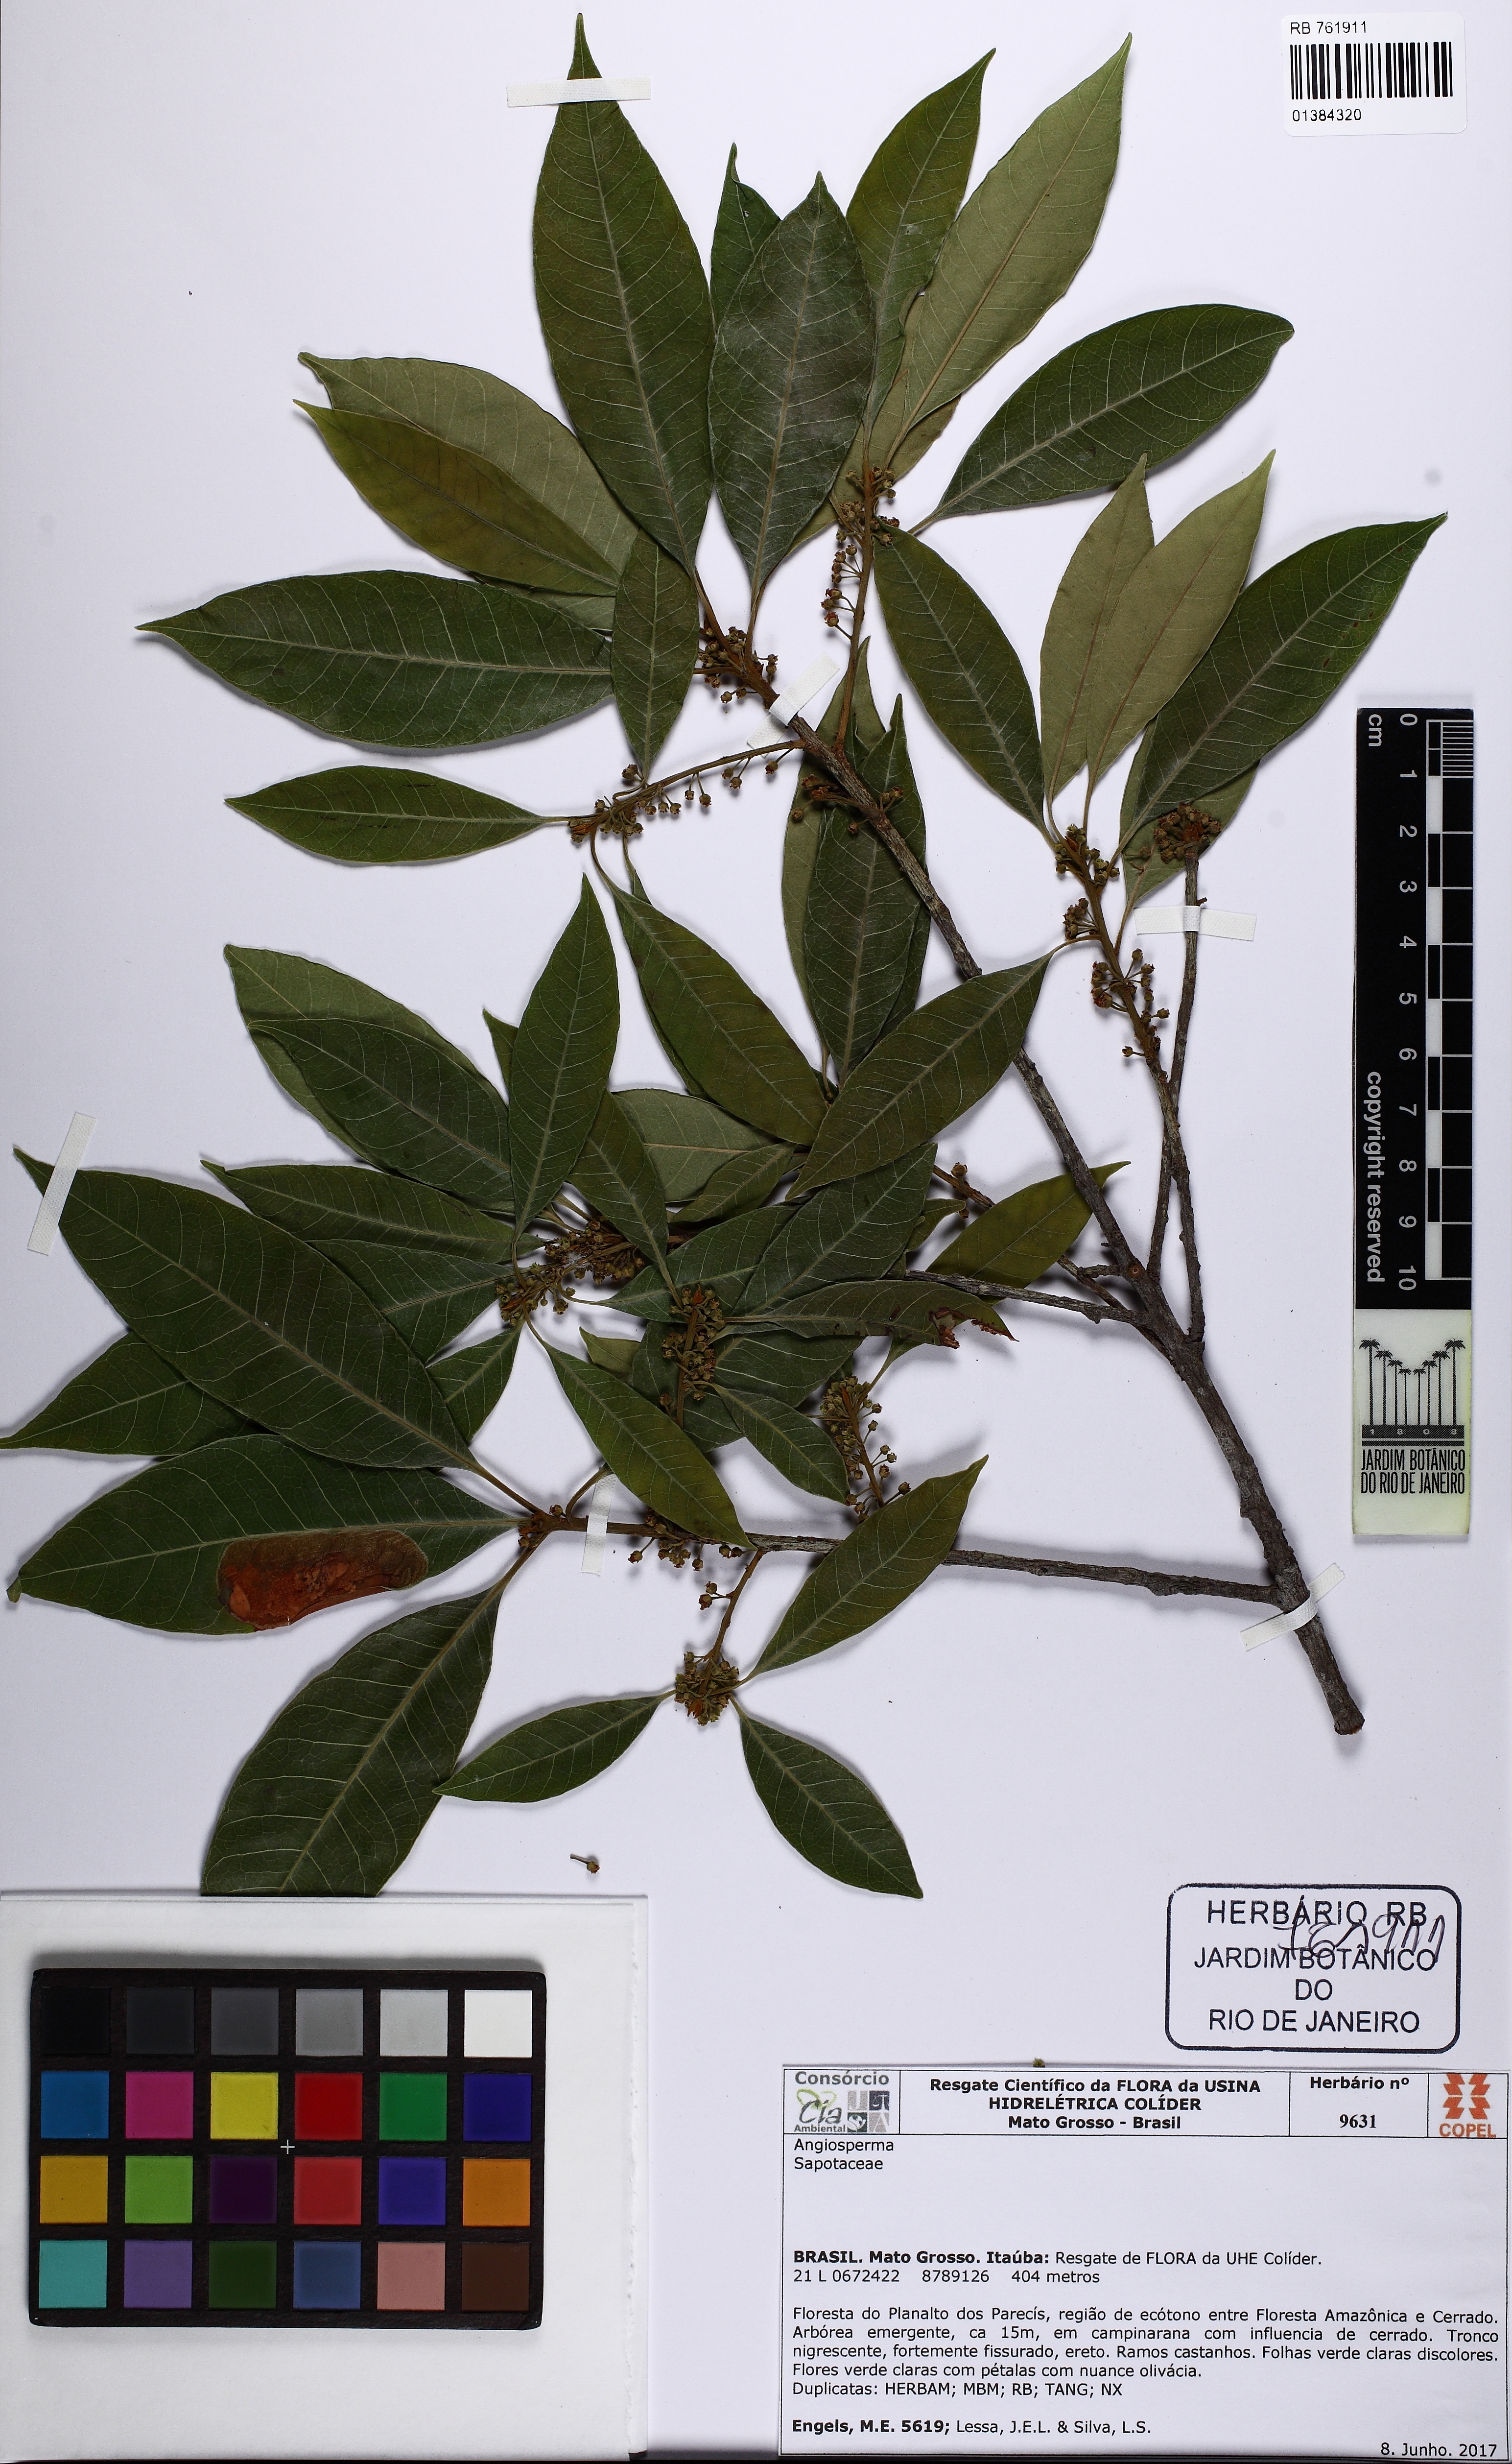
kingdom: Plantae
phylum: Tracheophyta
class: Magnoliopsida
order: Ericales
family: Sapotaceae
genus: Pouteria
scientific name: Pouteria ramiflora
